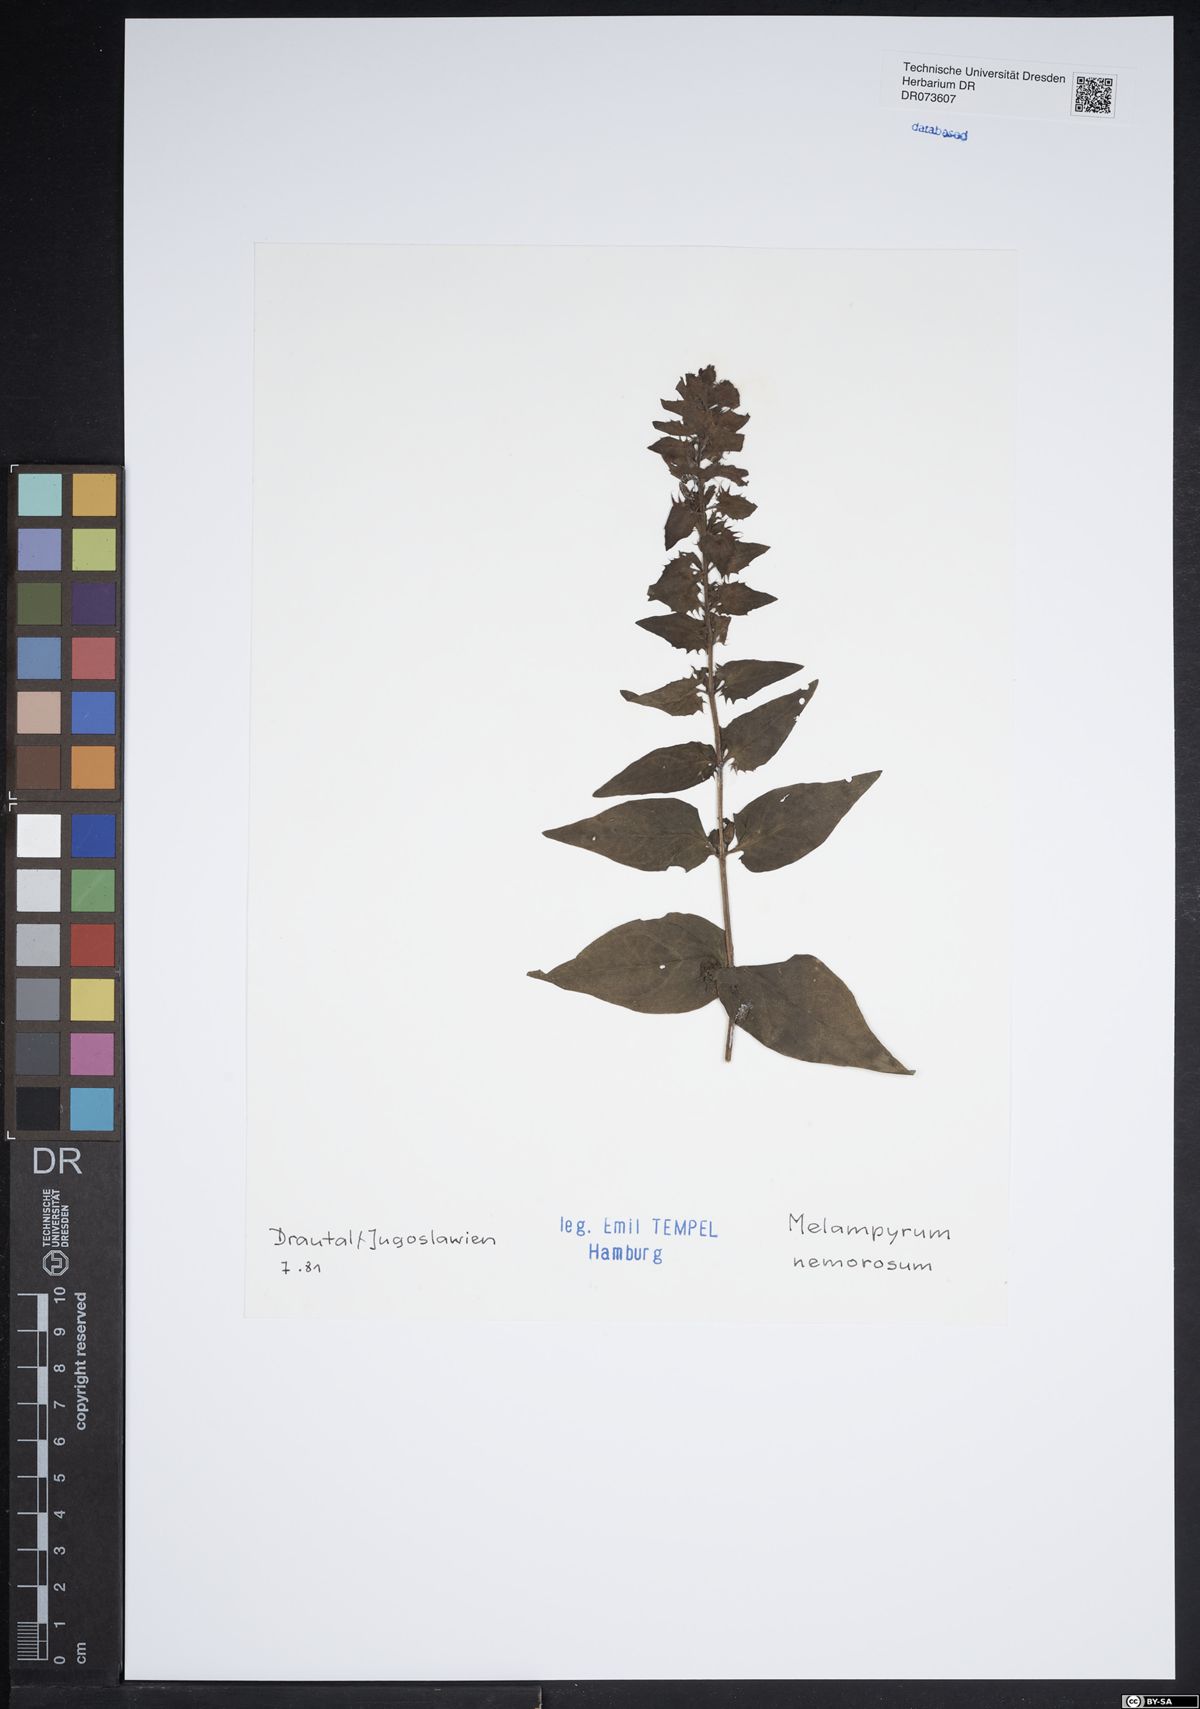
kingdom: Plantae
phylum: Tracheophyta
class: Magnoliopsida
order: Lamiales
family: Orobanchaceae
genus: Melampyrum
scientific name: Melampyrum nemorosum
